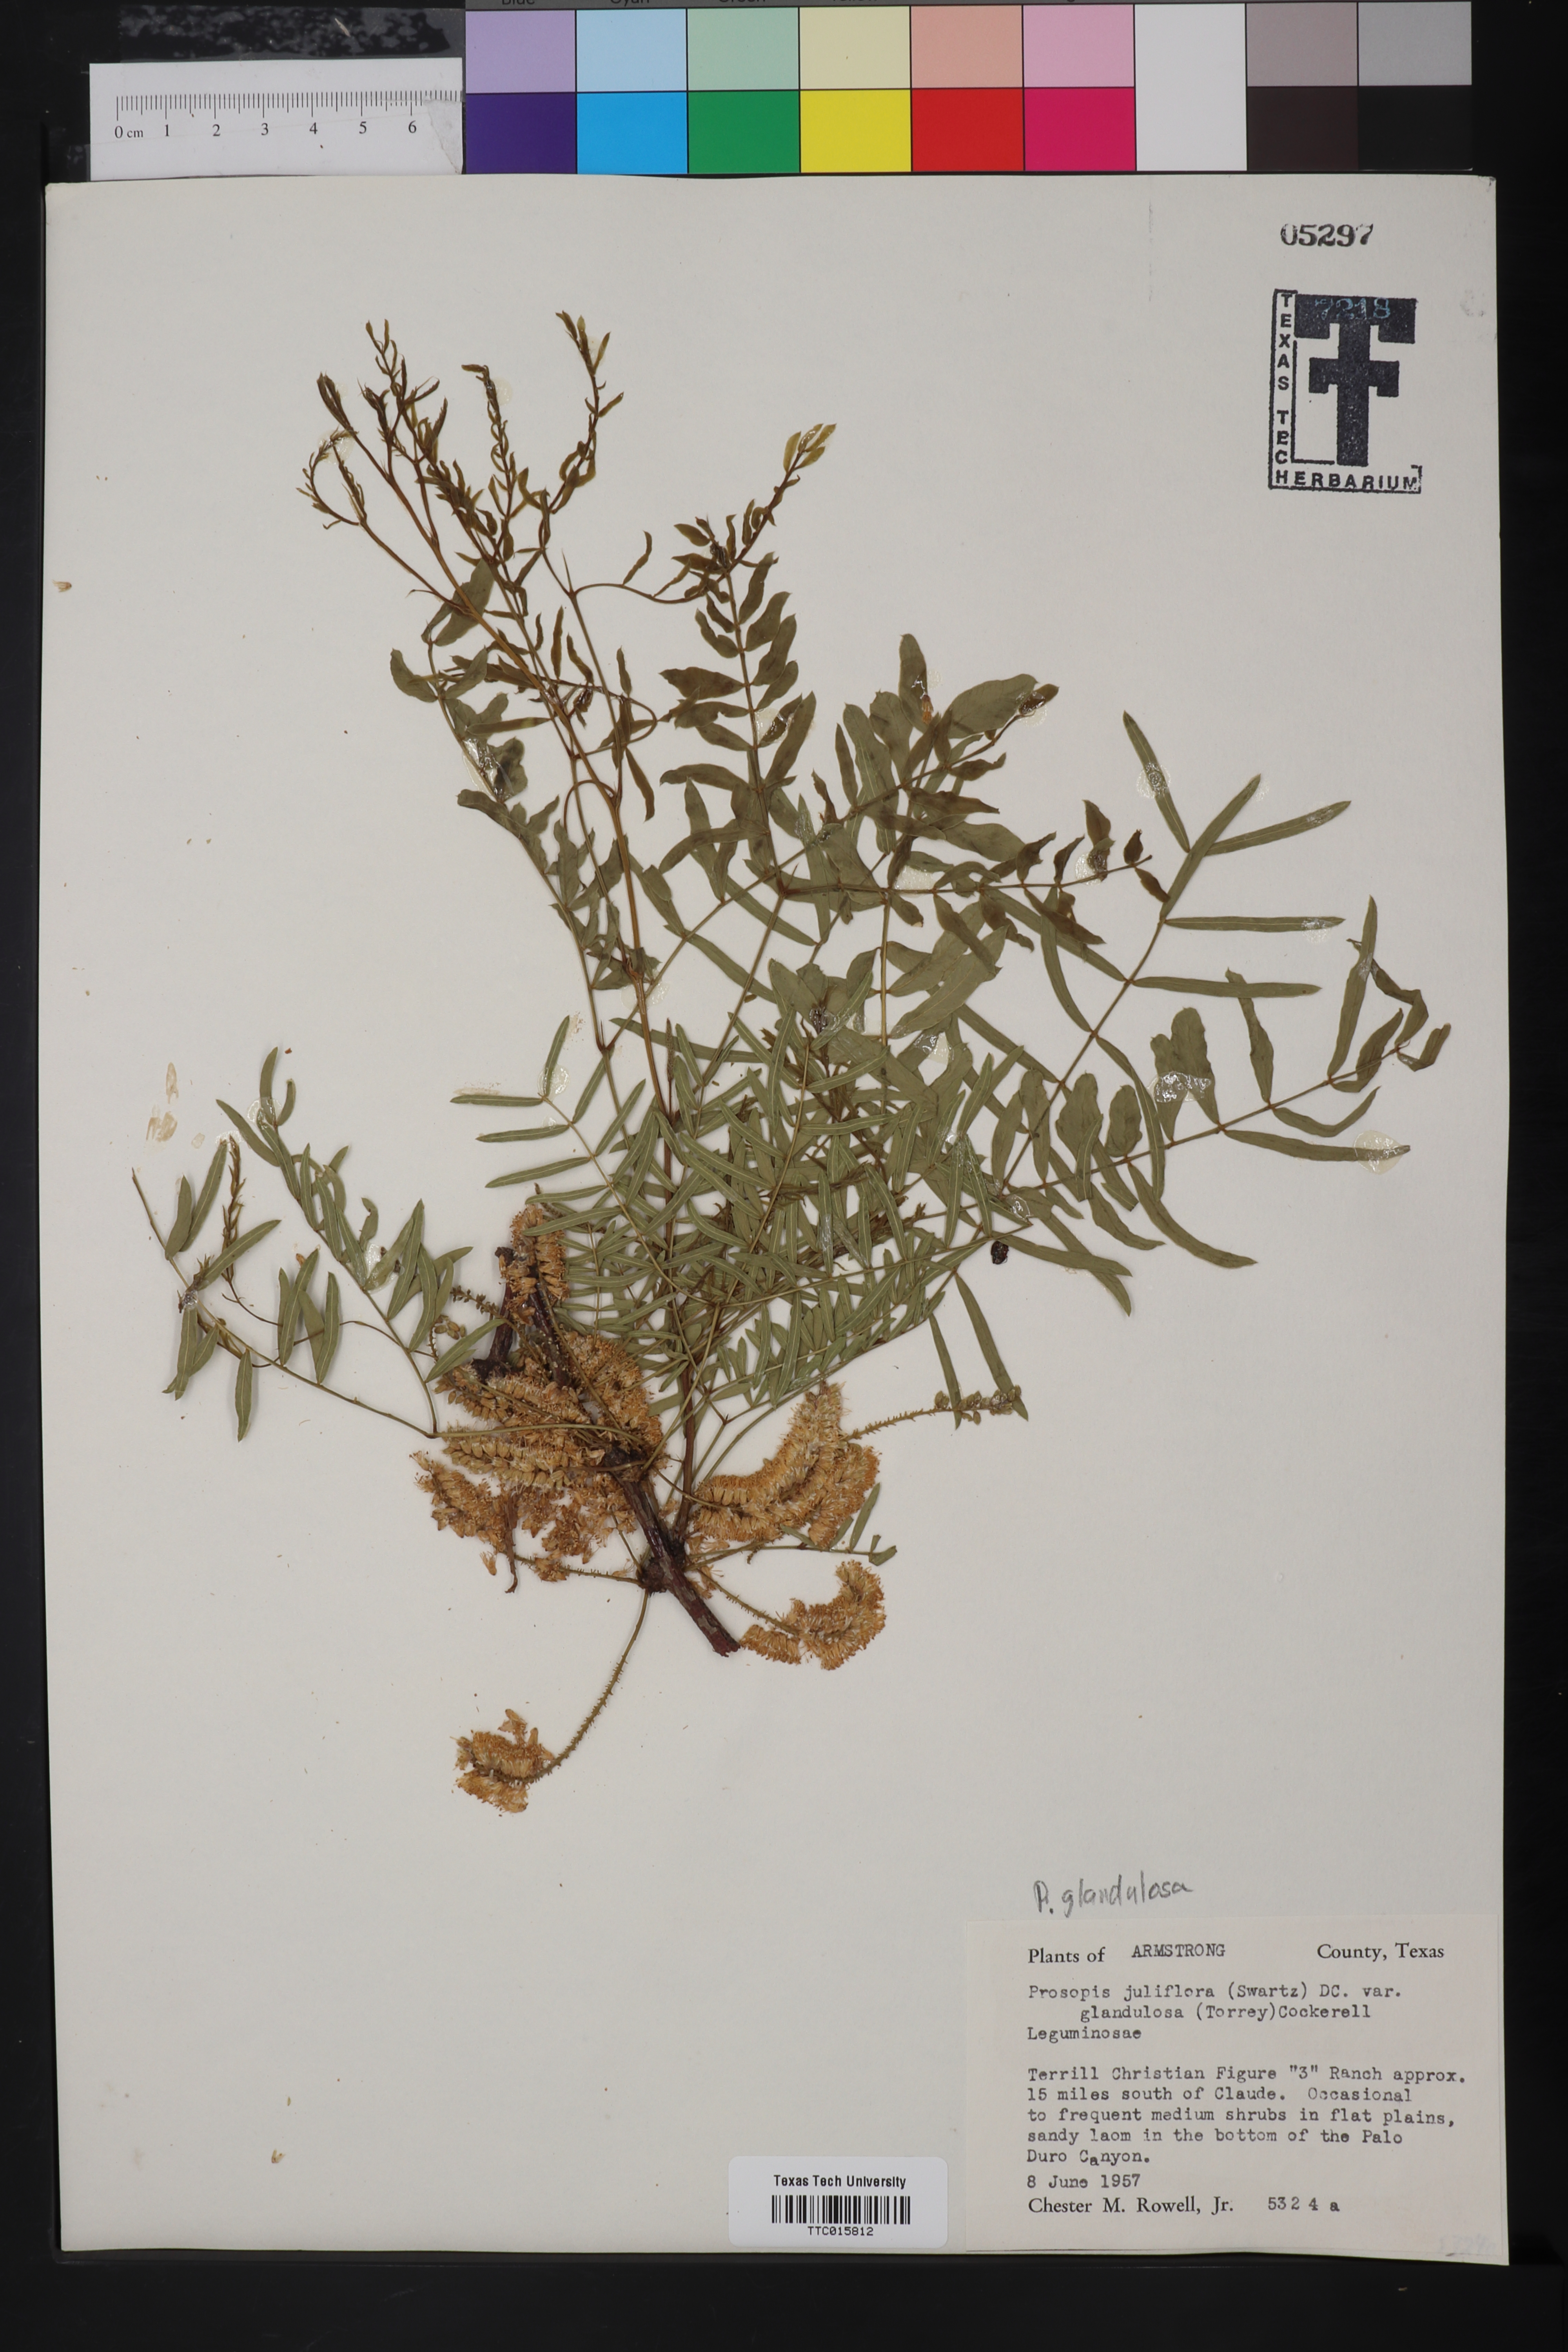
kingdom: Plantae
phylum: Tracheophyta
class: Magnoliopsida
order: Fabales
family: Fabaceae
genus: Prosopis
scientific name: Prosopis glandulosa
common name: Honey mesquite
